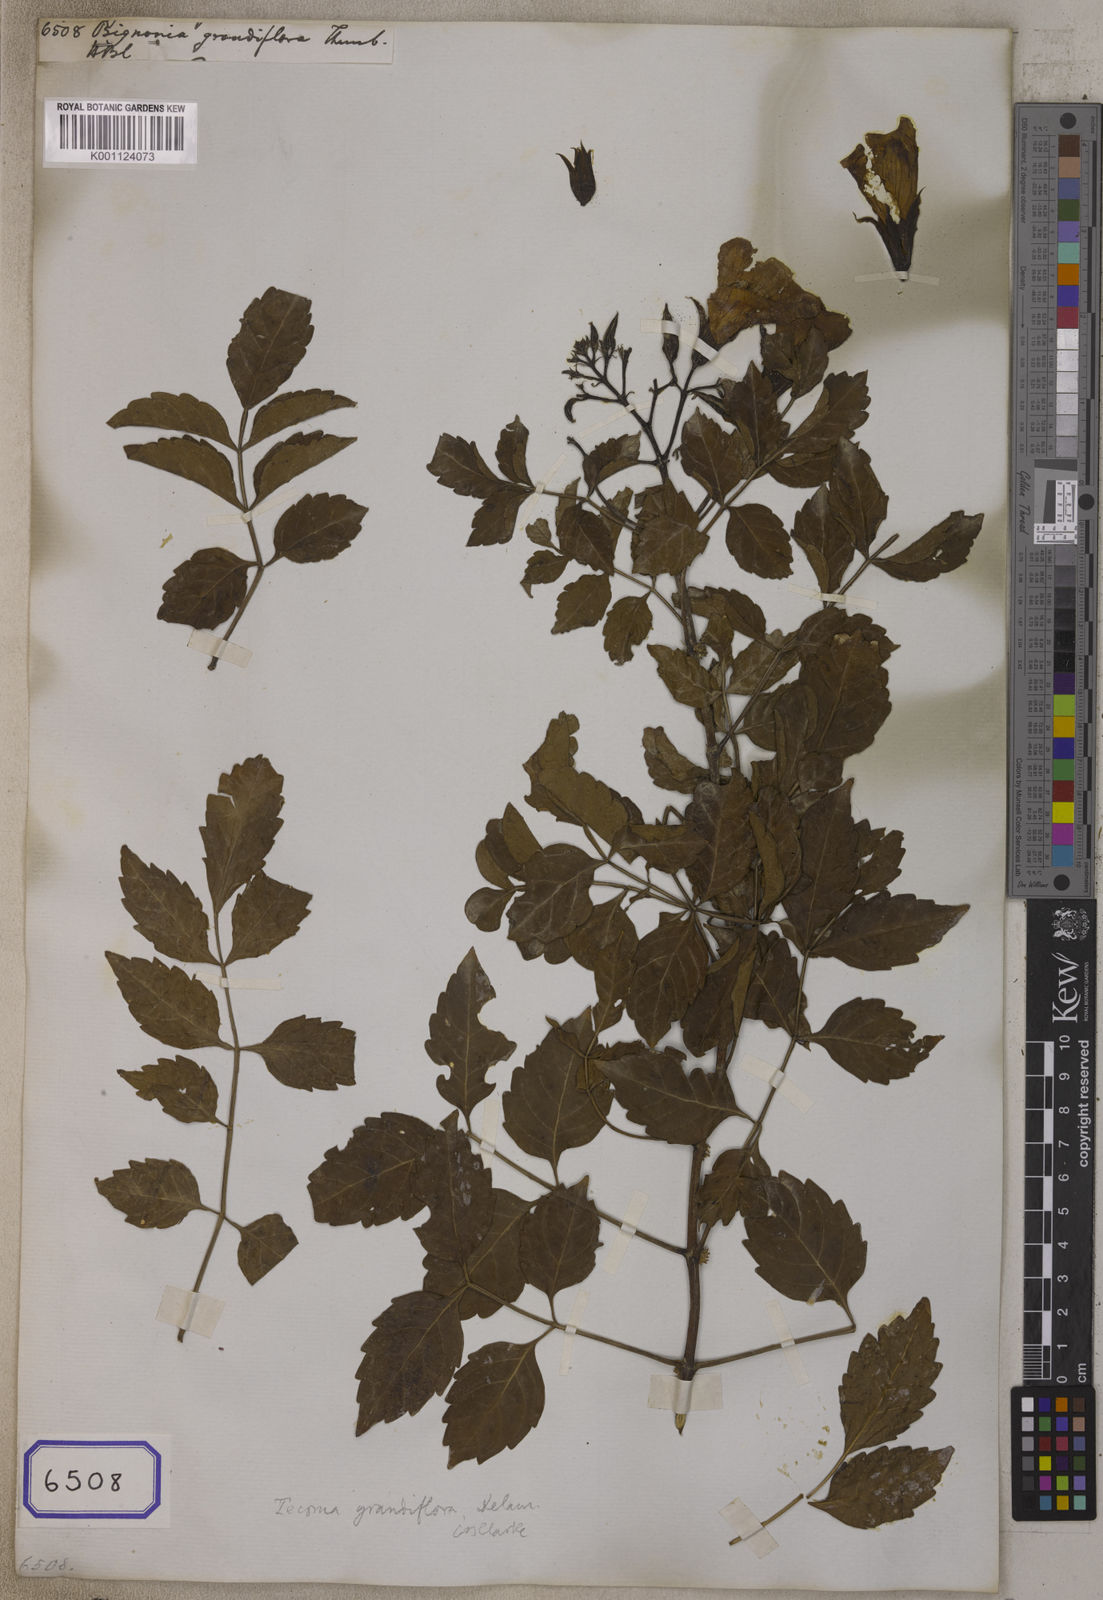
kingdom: Plantae
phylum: Tracheophyta
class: Magnoliopsida
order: Lamiales
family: Bignoniaceae
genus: Campsis
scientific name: Campsis grandiflora
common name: Chinese trumpet-creeper
